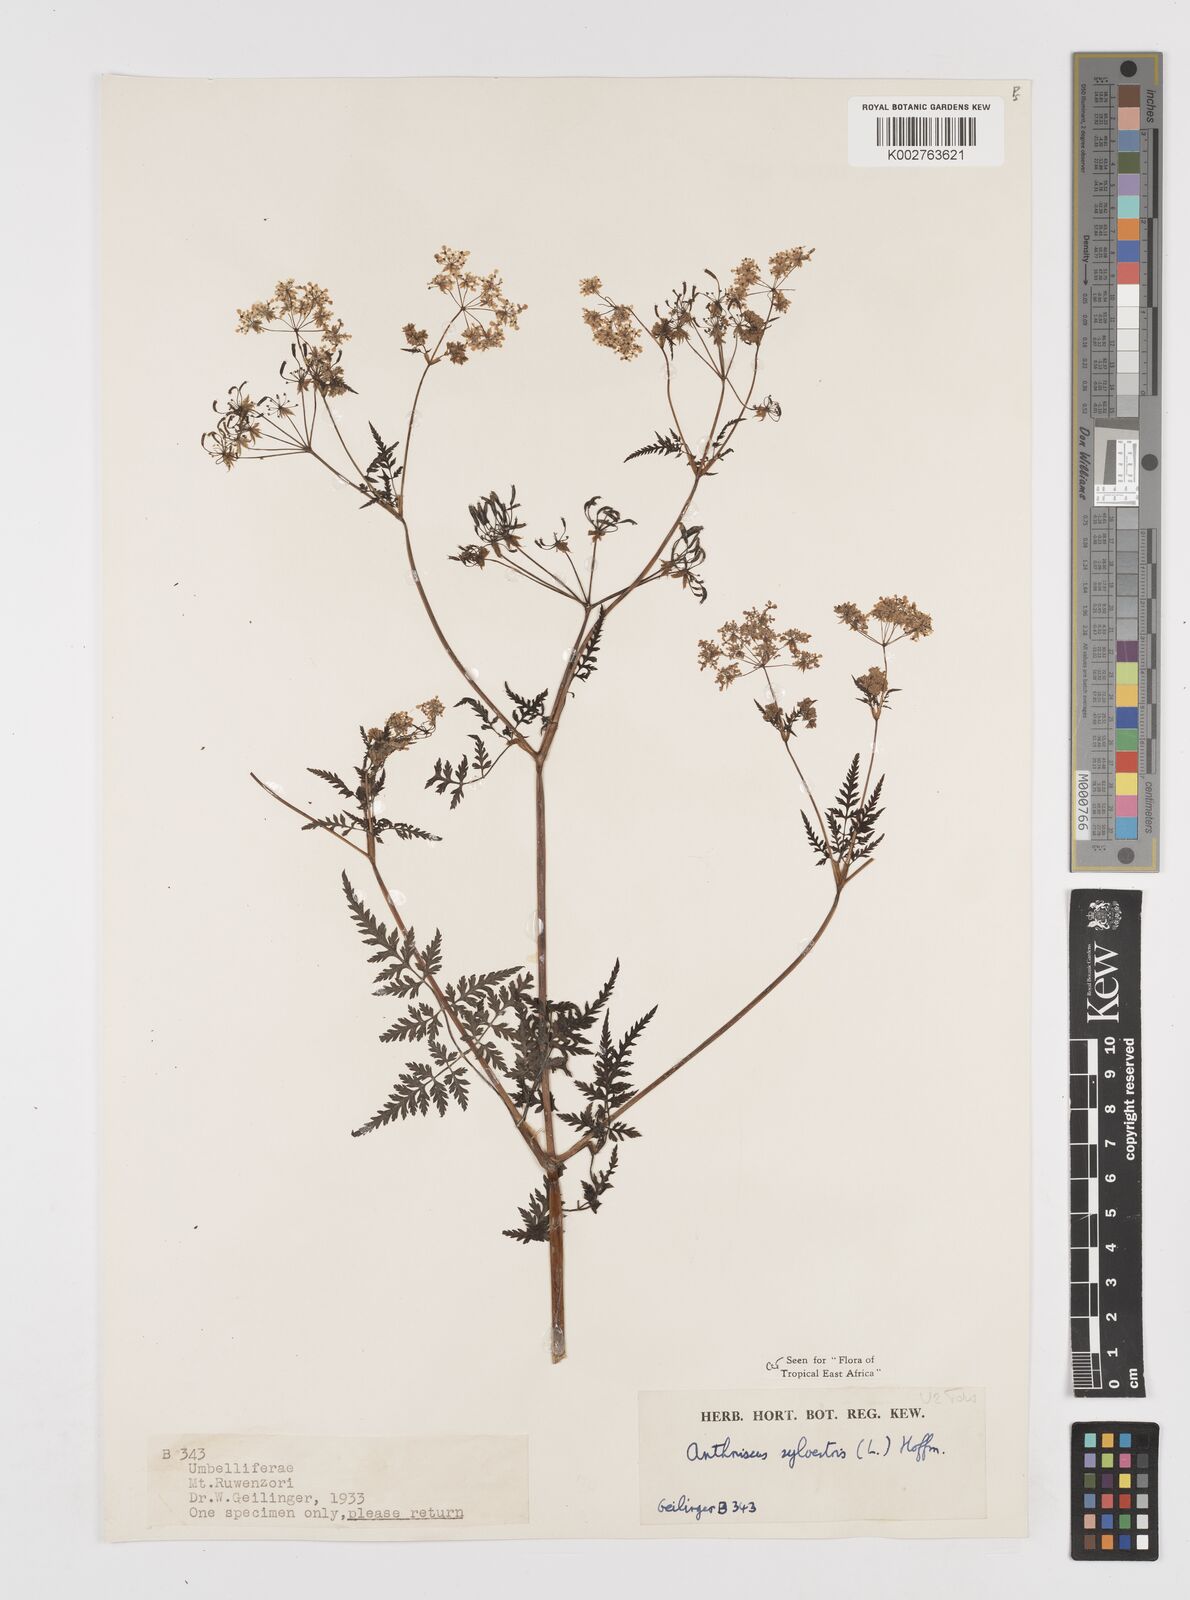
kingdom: Plantae
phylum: Tracheophyta
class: Magnoliopsida
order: Apiales
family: Apiaceae
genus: Anthriscus
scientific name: Anthriscus sylvestris
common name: Cow parsley
